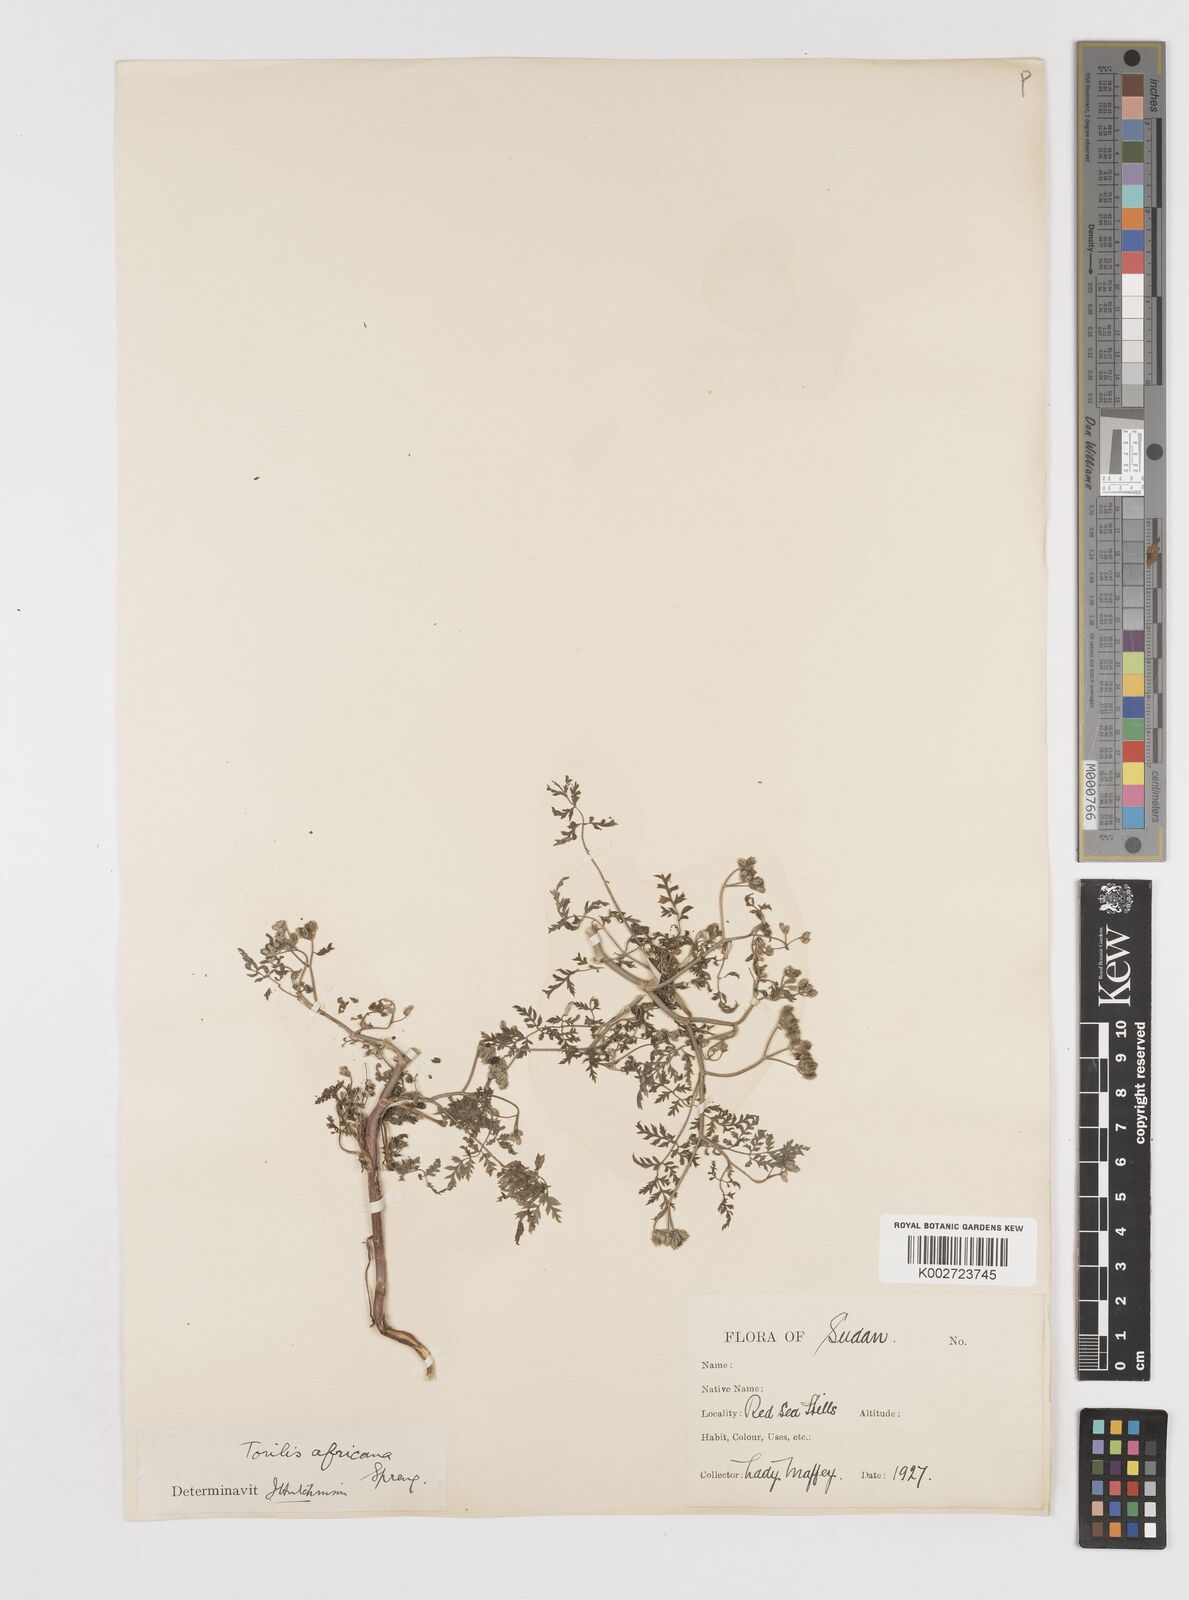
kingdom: Plantae
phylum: Tracheophyta
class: Magnoliopsida
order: Apiales
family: Apiaceae
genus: Torilis
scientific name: Torilis arvensis
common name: Spreading hedge-parsley
